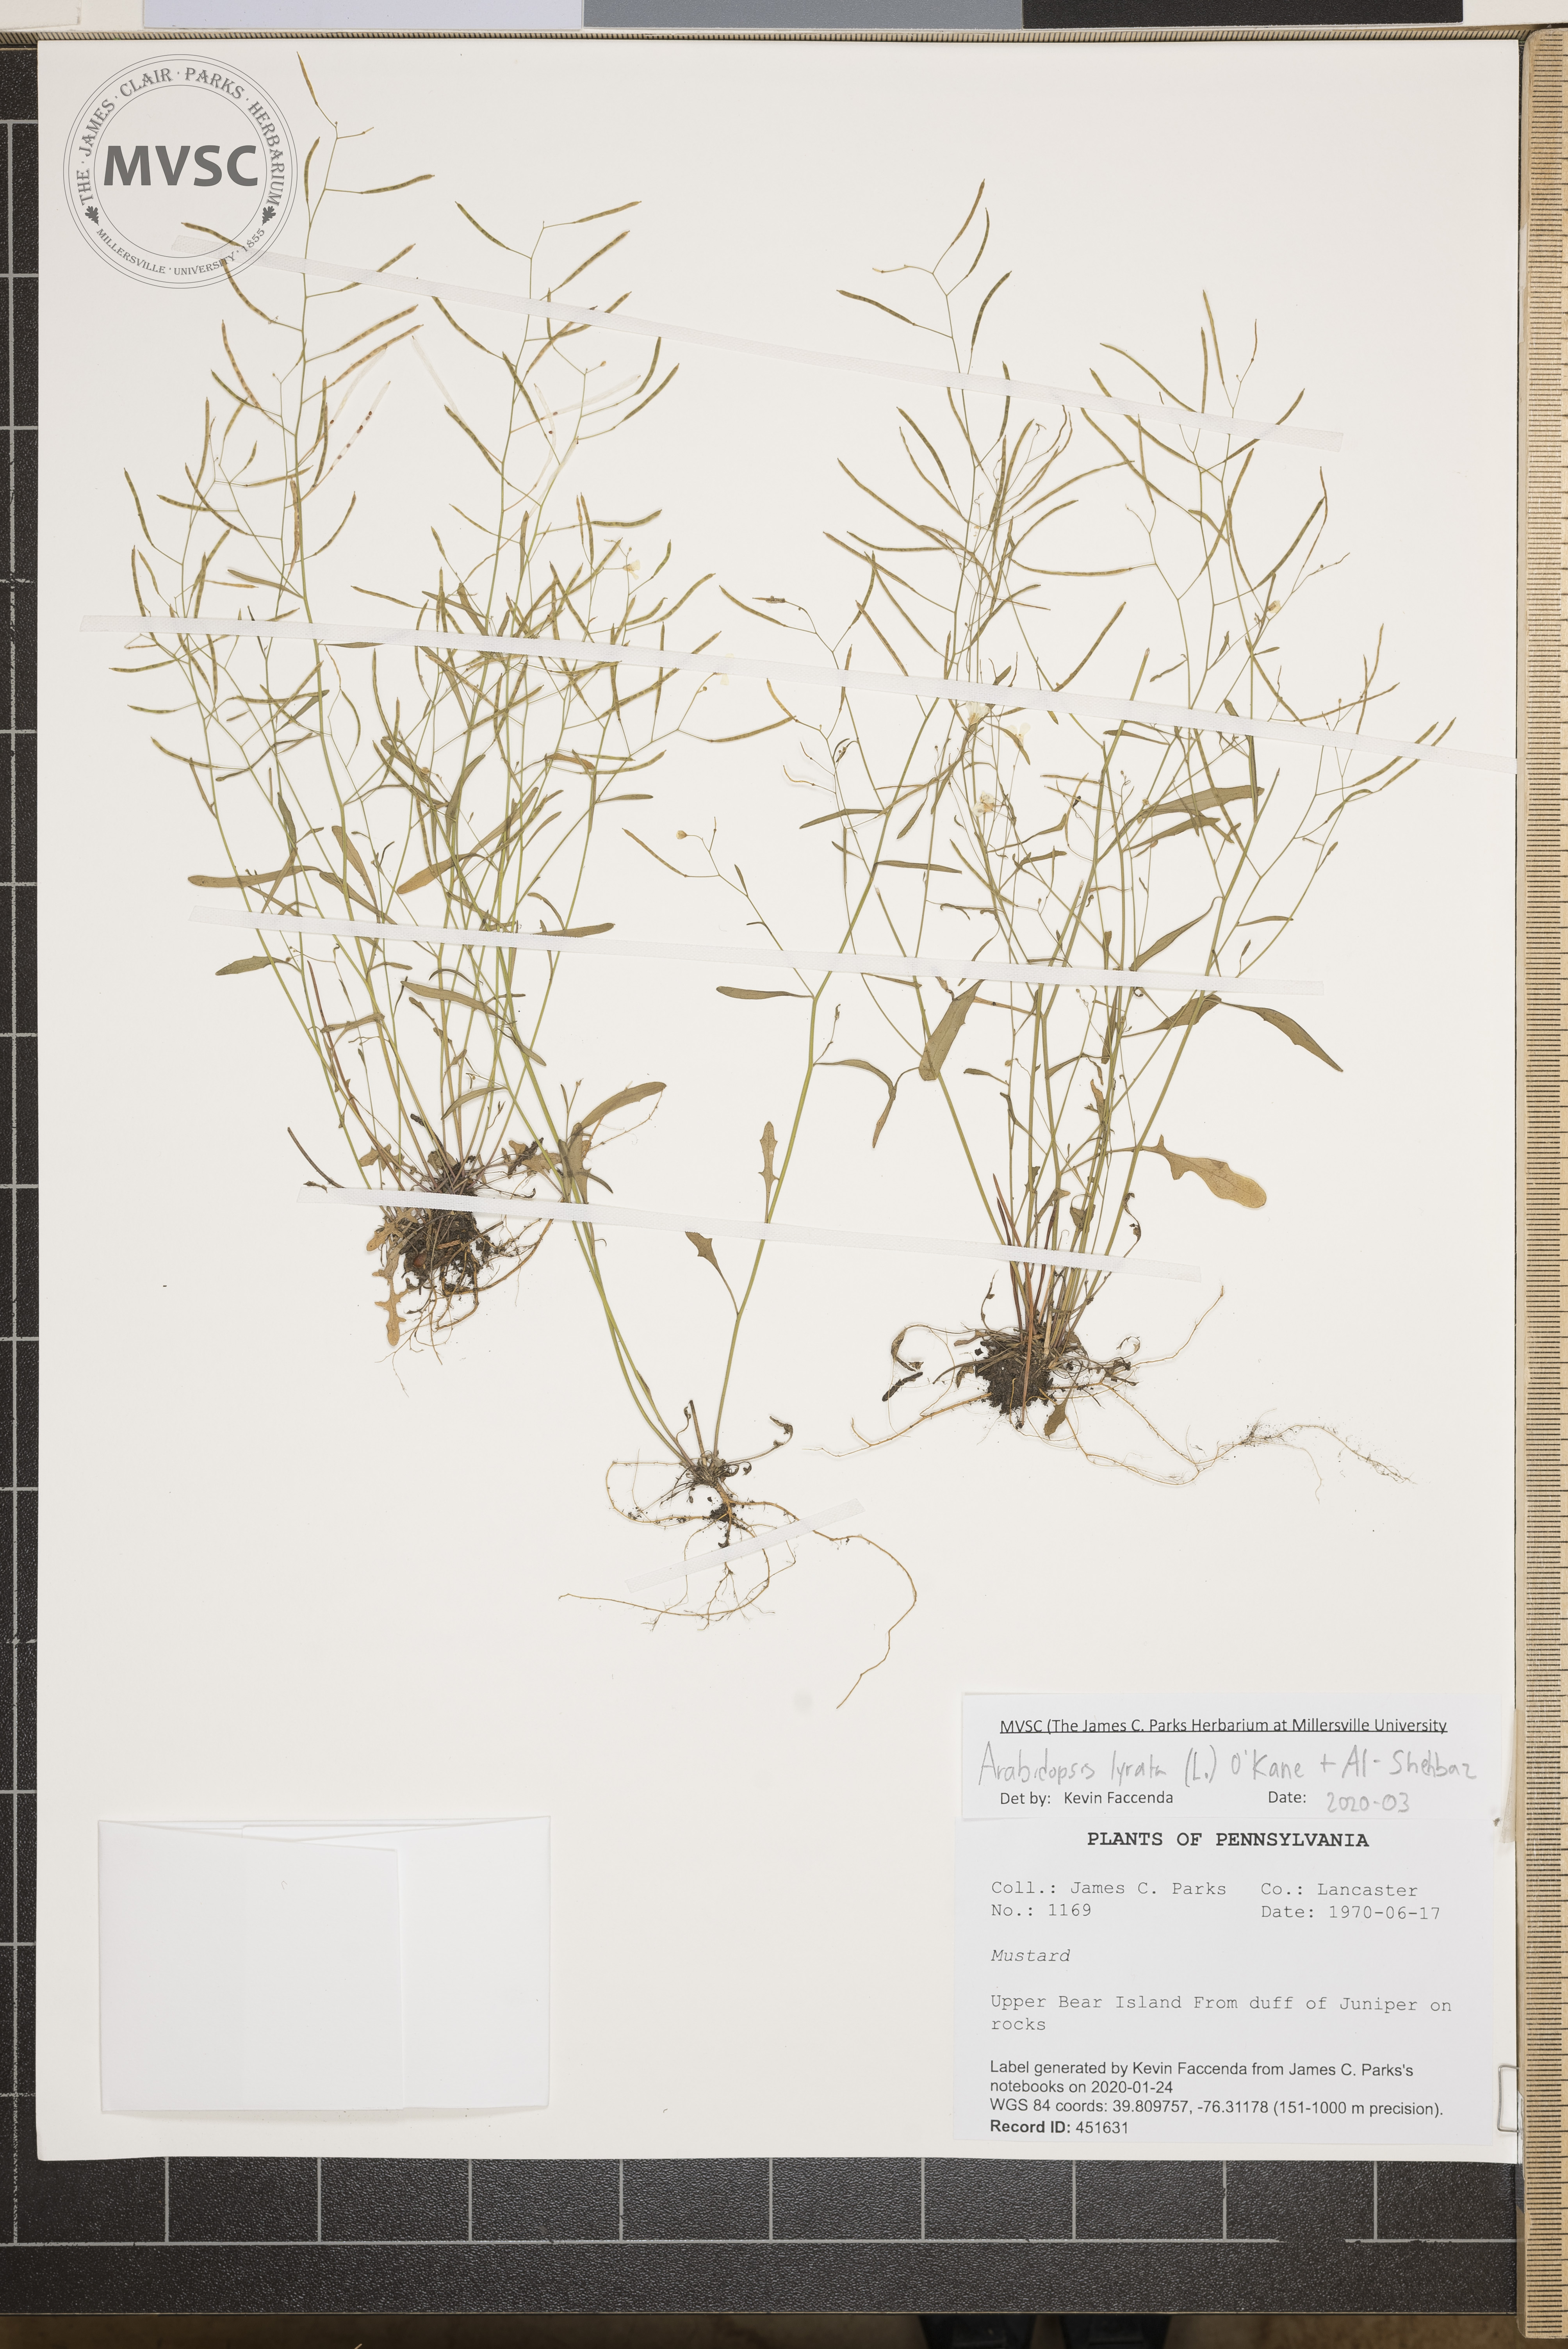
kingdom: Plantae
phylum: Tracheophyta
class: Magnoliopsida
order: Brassicales
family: Brassicaceae
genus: Arabidopsis
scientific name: Arabidopsis lyrata
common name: Lyrate rockcress
